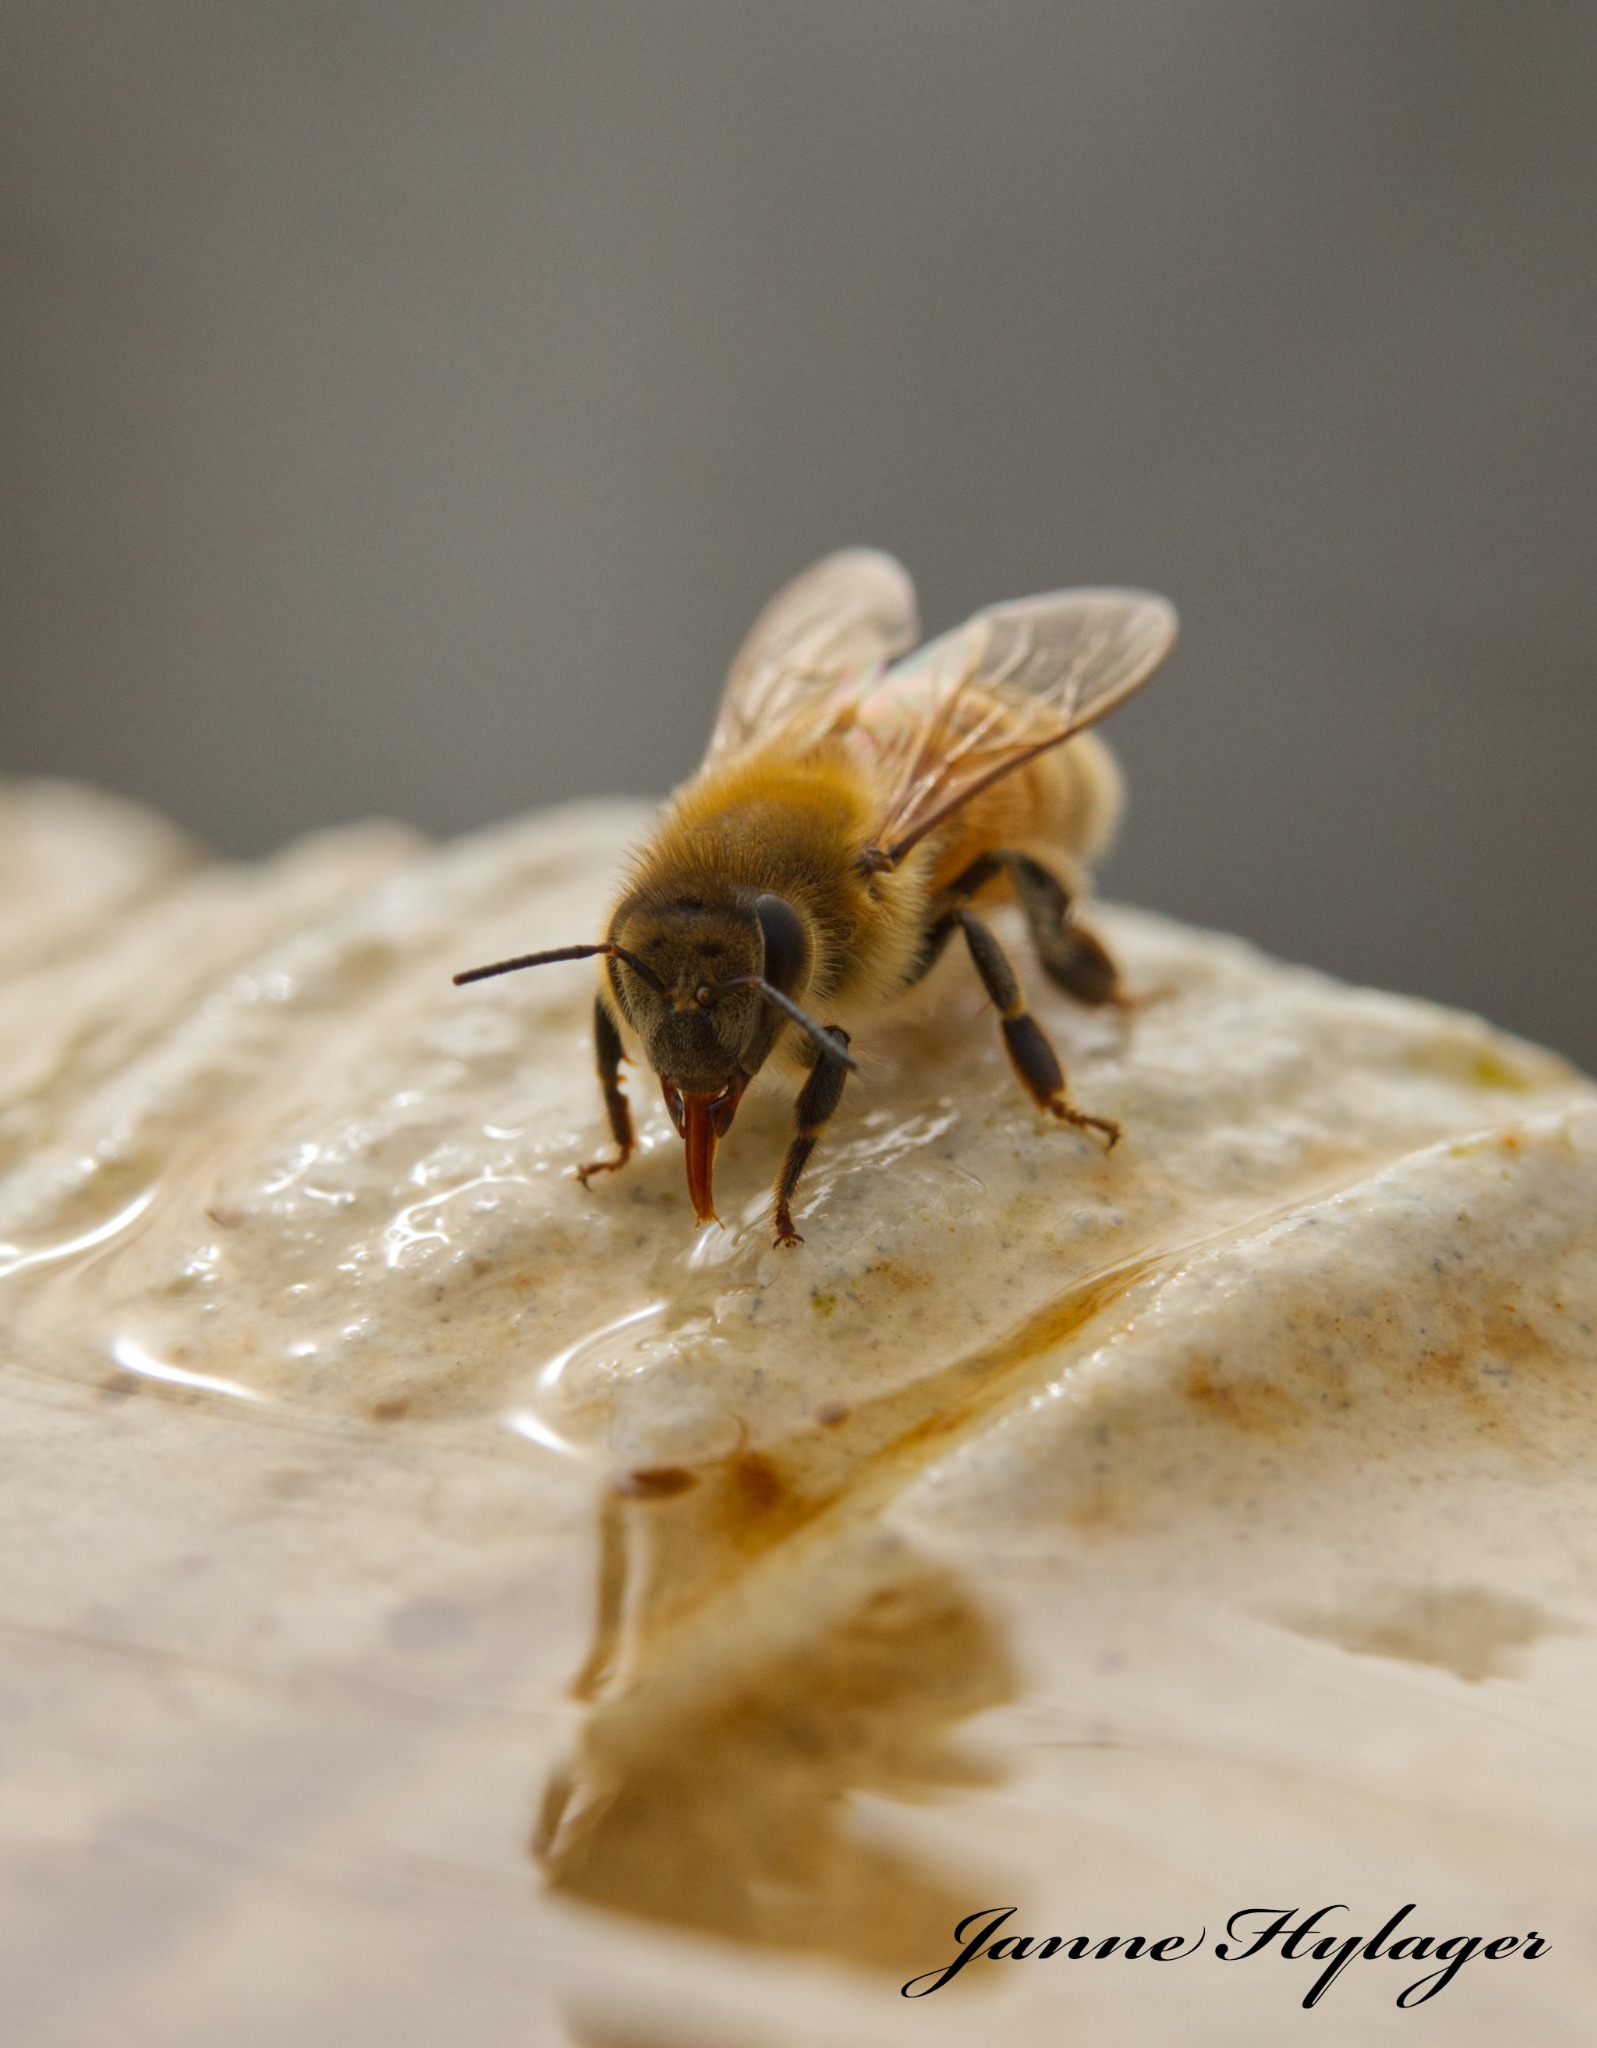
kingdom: Animalia
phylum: Arthropoda
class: Insecta
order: Hymenoptera
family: Apidae
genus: Apis
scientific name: Apis mellifera
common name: Honningbi
